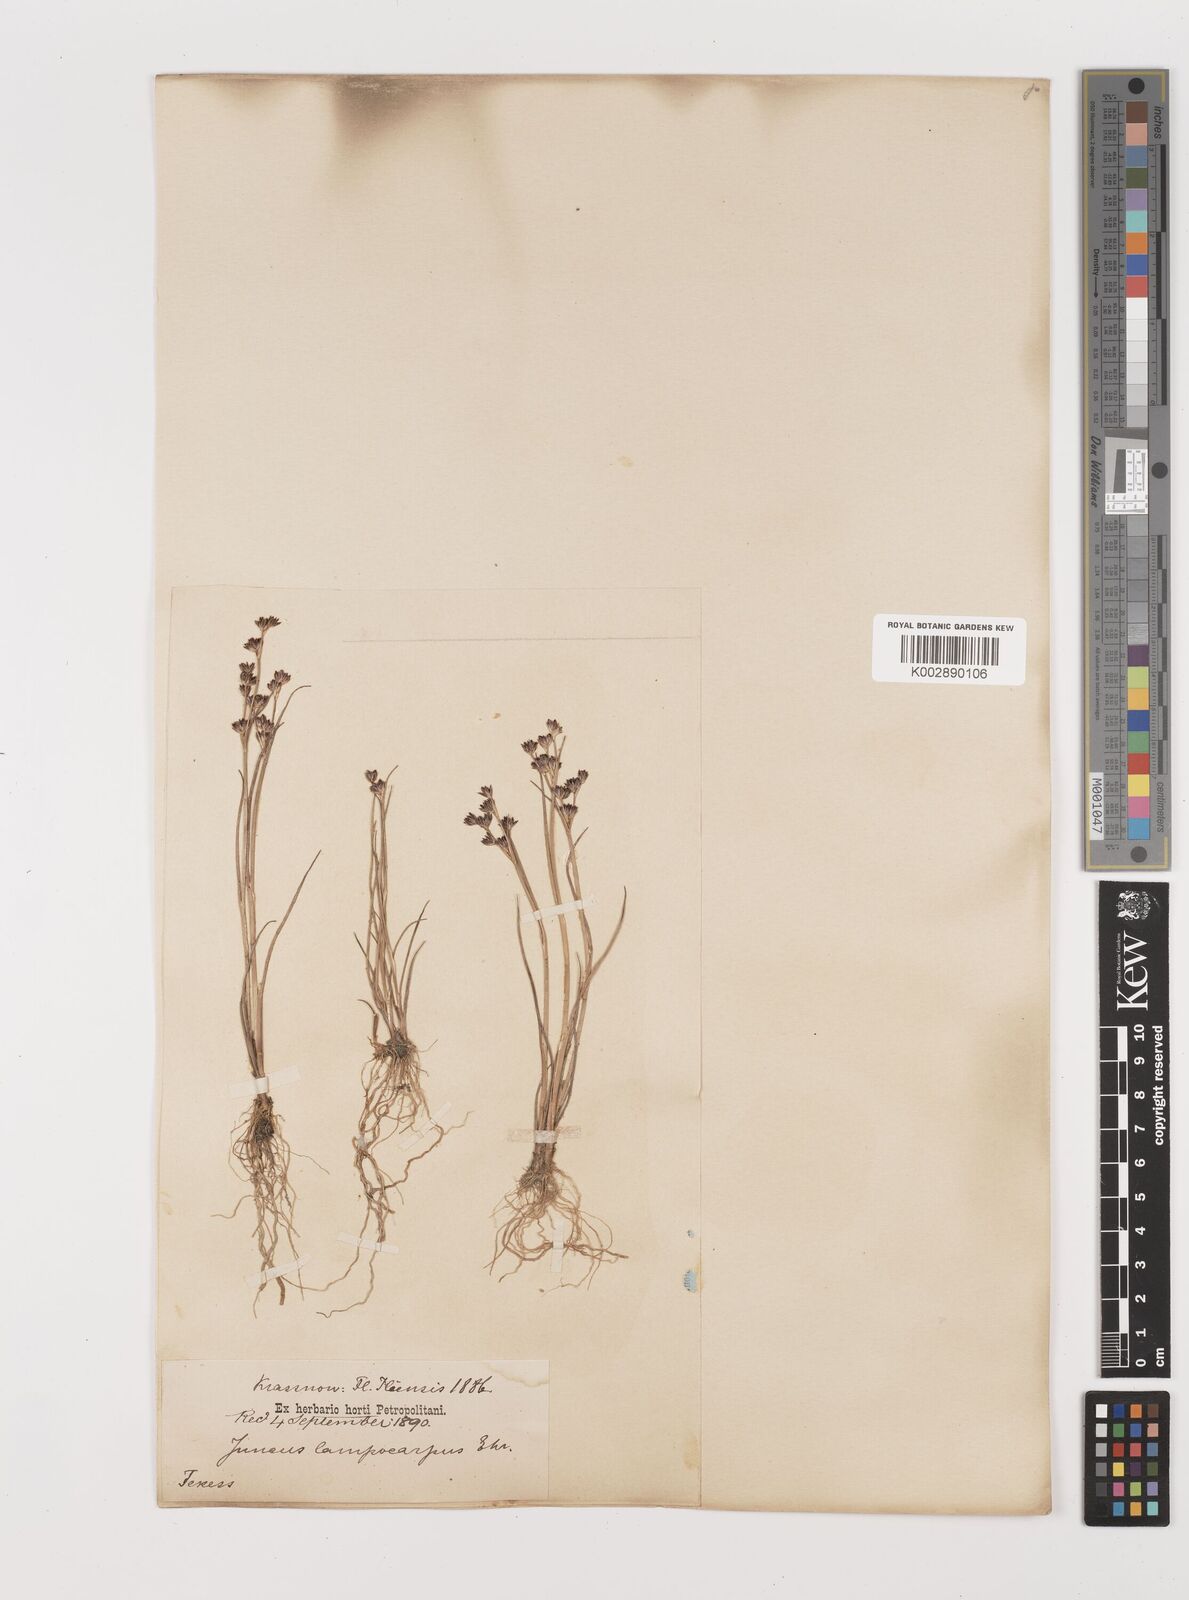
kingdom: Plantae
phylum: Tracheophyta
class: Liliopsida
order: Poales
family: Juncaceae
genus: Juncus
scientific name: Juncus articulatus
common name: Jointed rush
